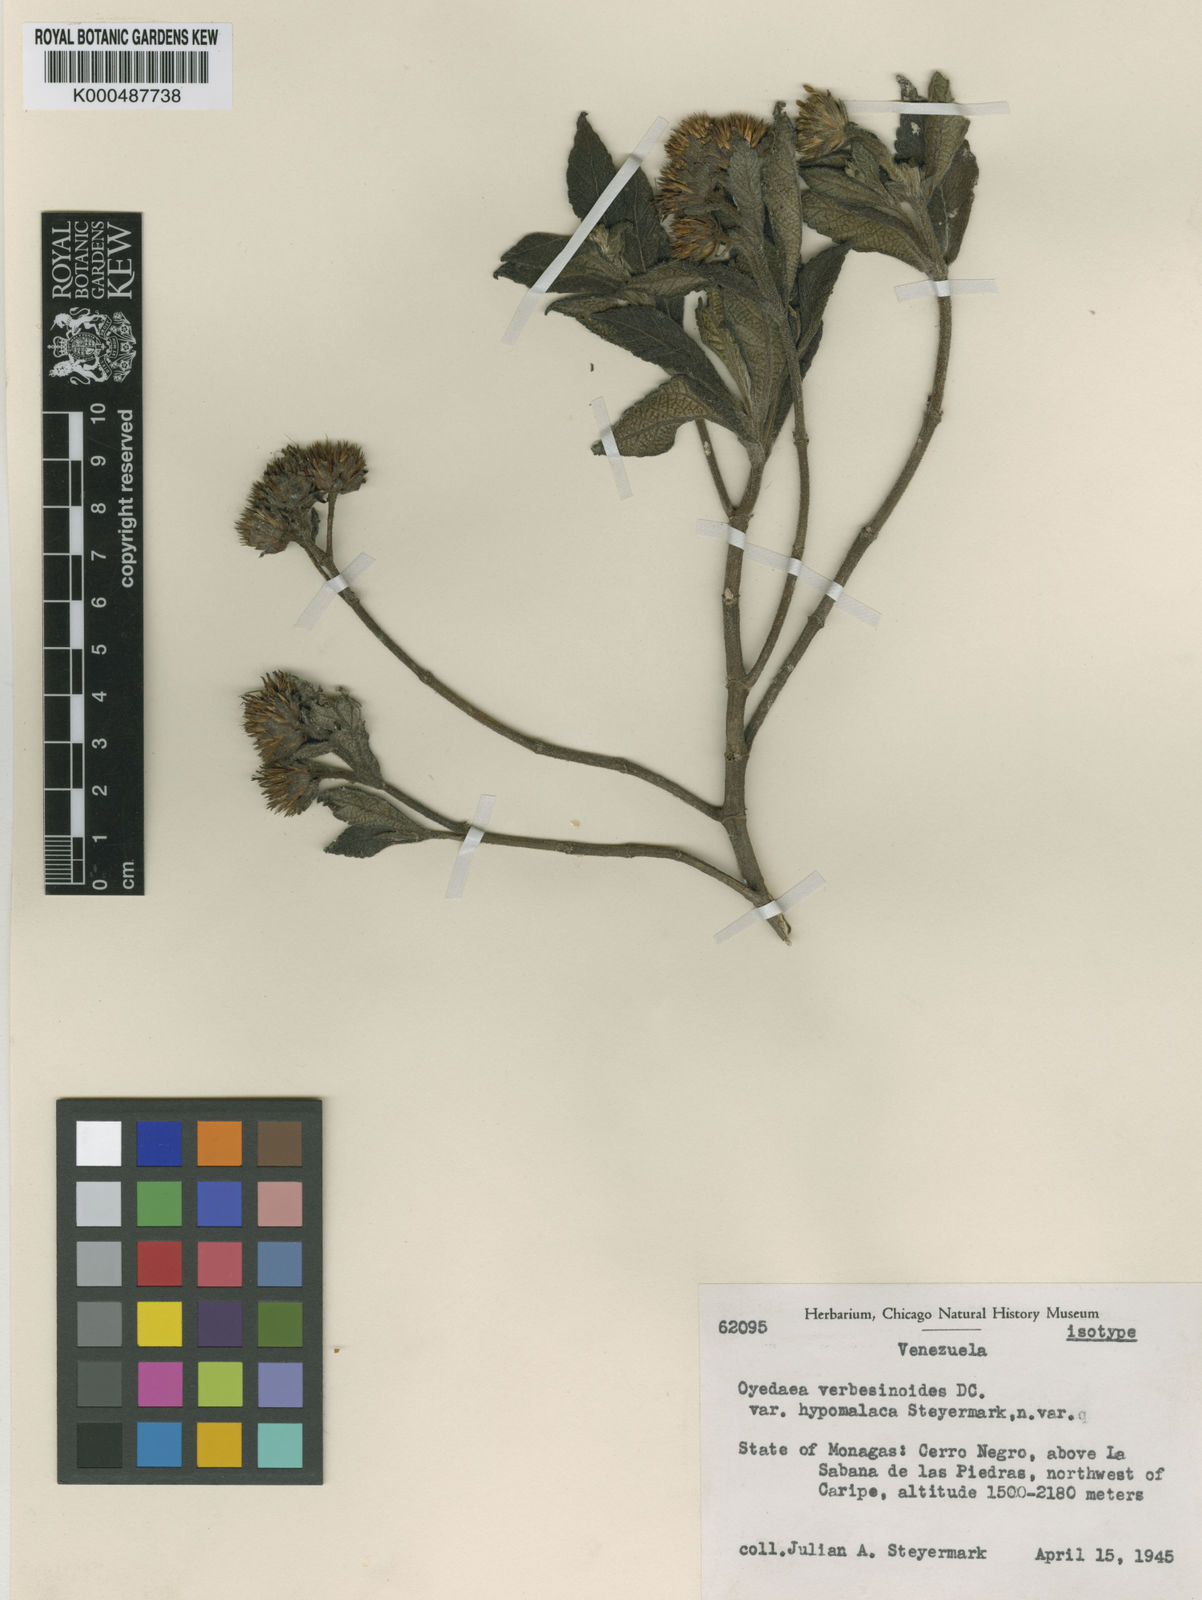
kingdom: Plantae
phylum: Tracheophyta
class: Magnoliopsida
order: Asterales
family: Asteraceae
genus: Oyedaea
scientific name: Oyedaea hypomalaca
